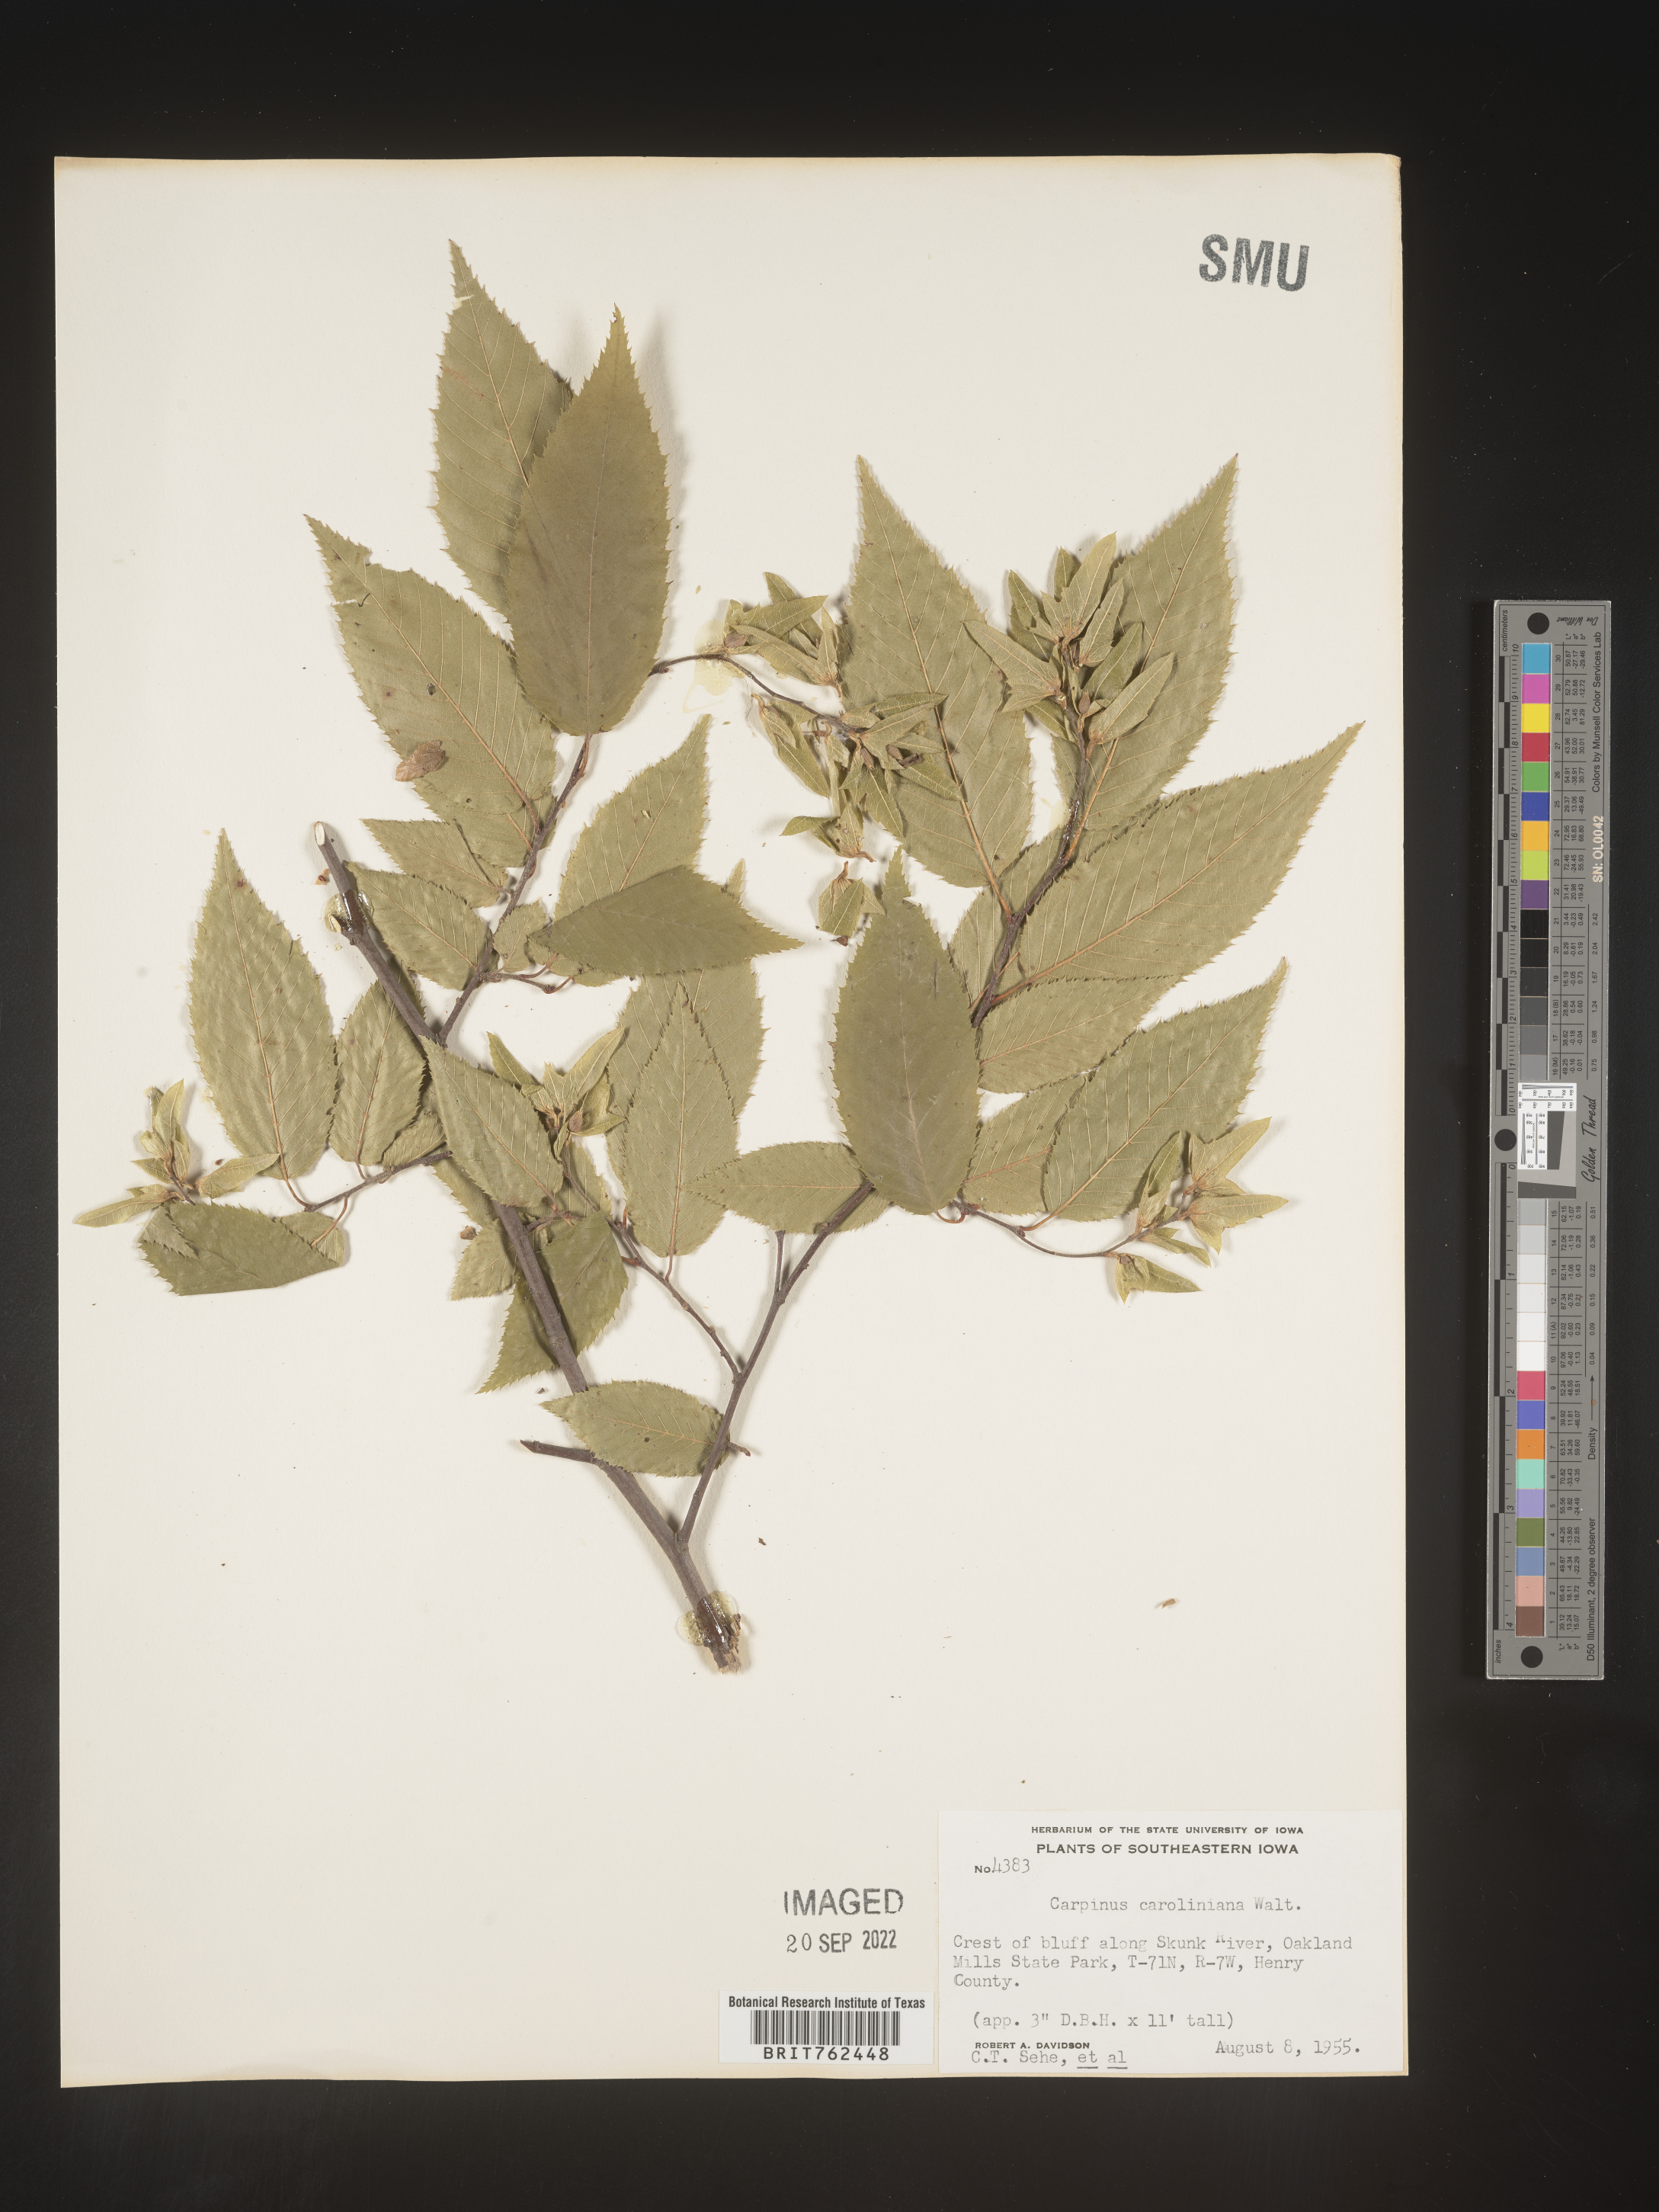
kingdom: Plantae
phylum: Tracheophyta
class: Magnoliopsida
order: Fagales
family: Betulaceae
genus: Carpinus
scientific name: Carpinus caroliniana
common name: American hornbeam
